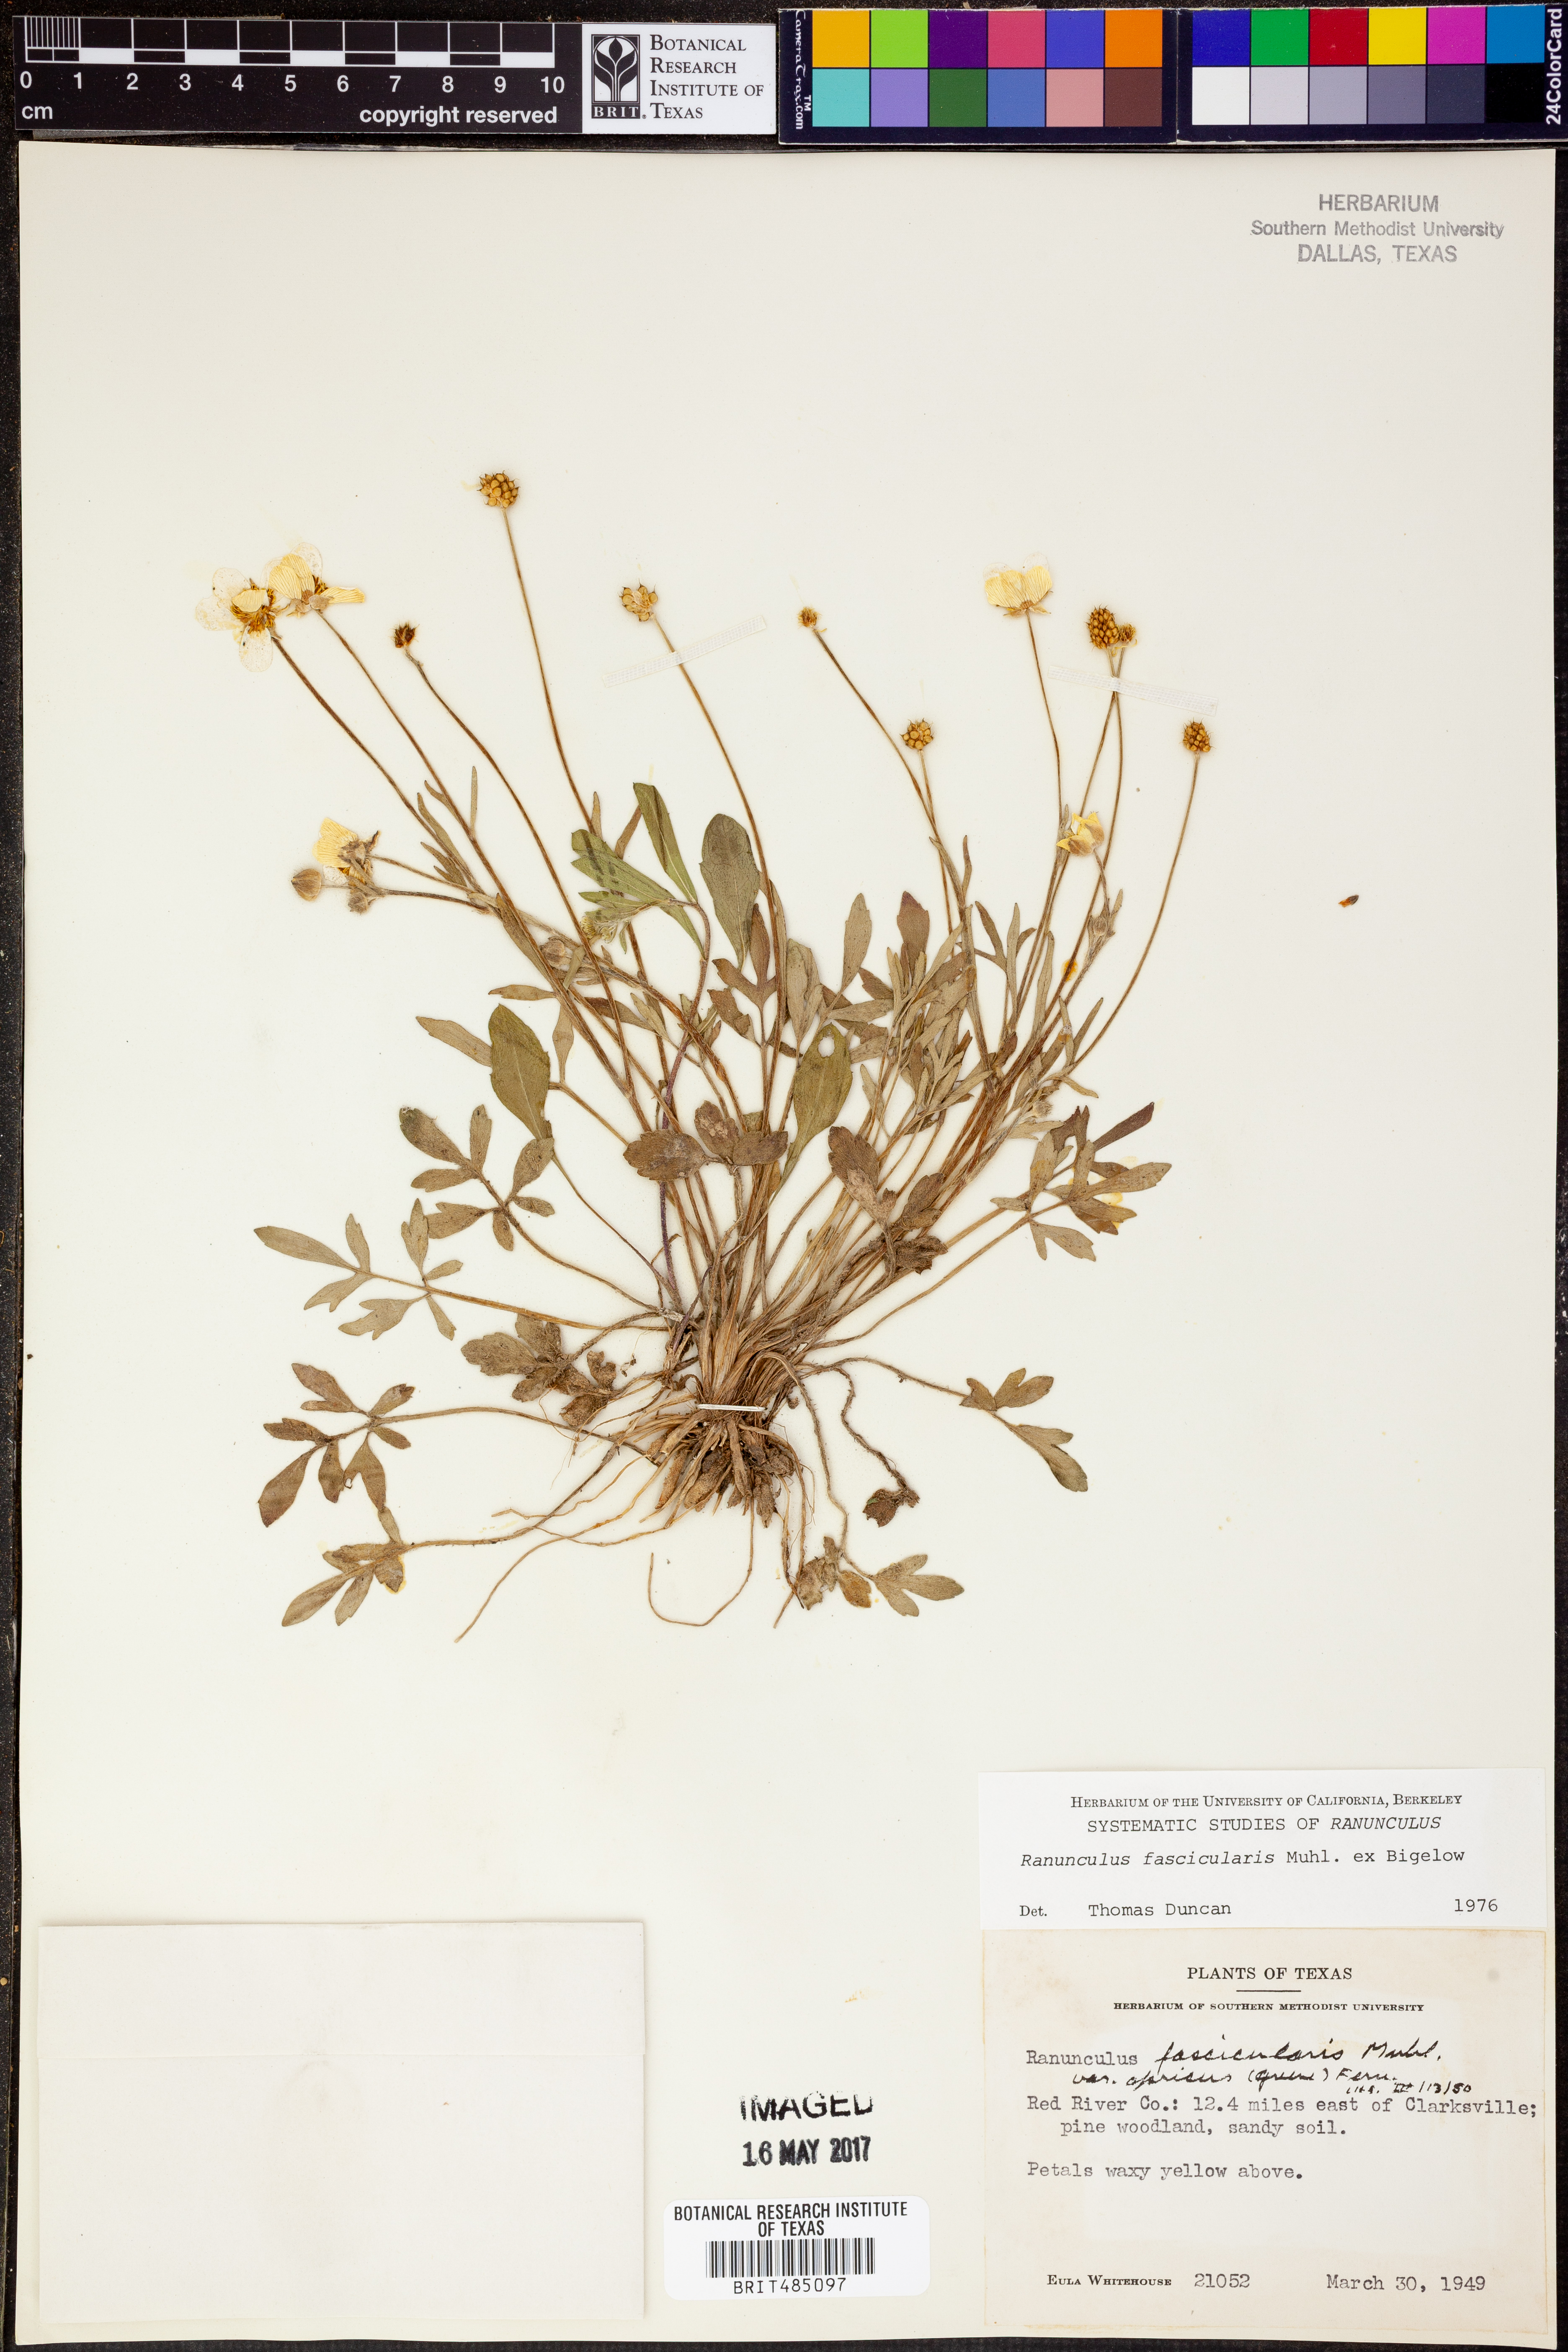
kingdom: Plantae
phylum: Tracheophyta
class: Magnoliopsida
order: Ranunculales
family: Ranunculaceae
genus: Ranunculus
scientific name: Ranunculus fascicularis
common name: Early buttercup
